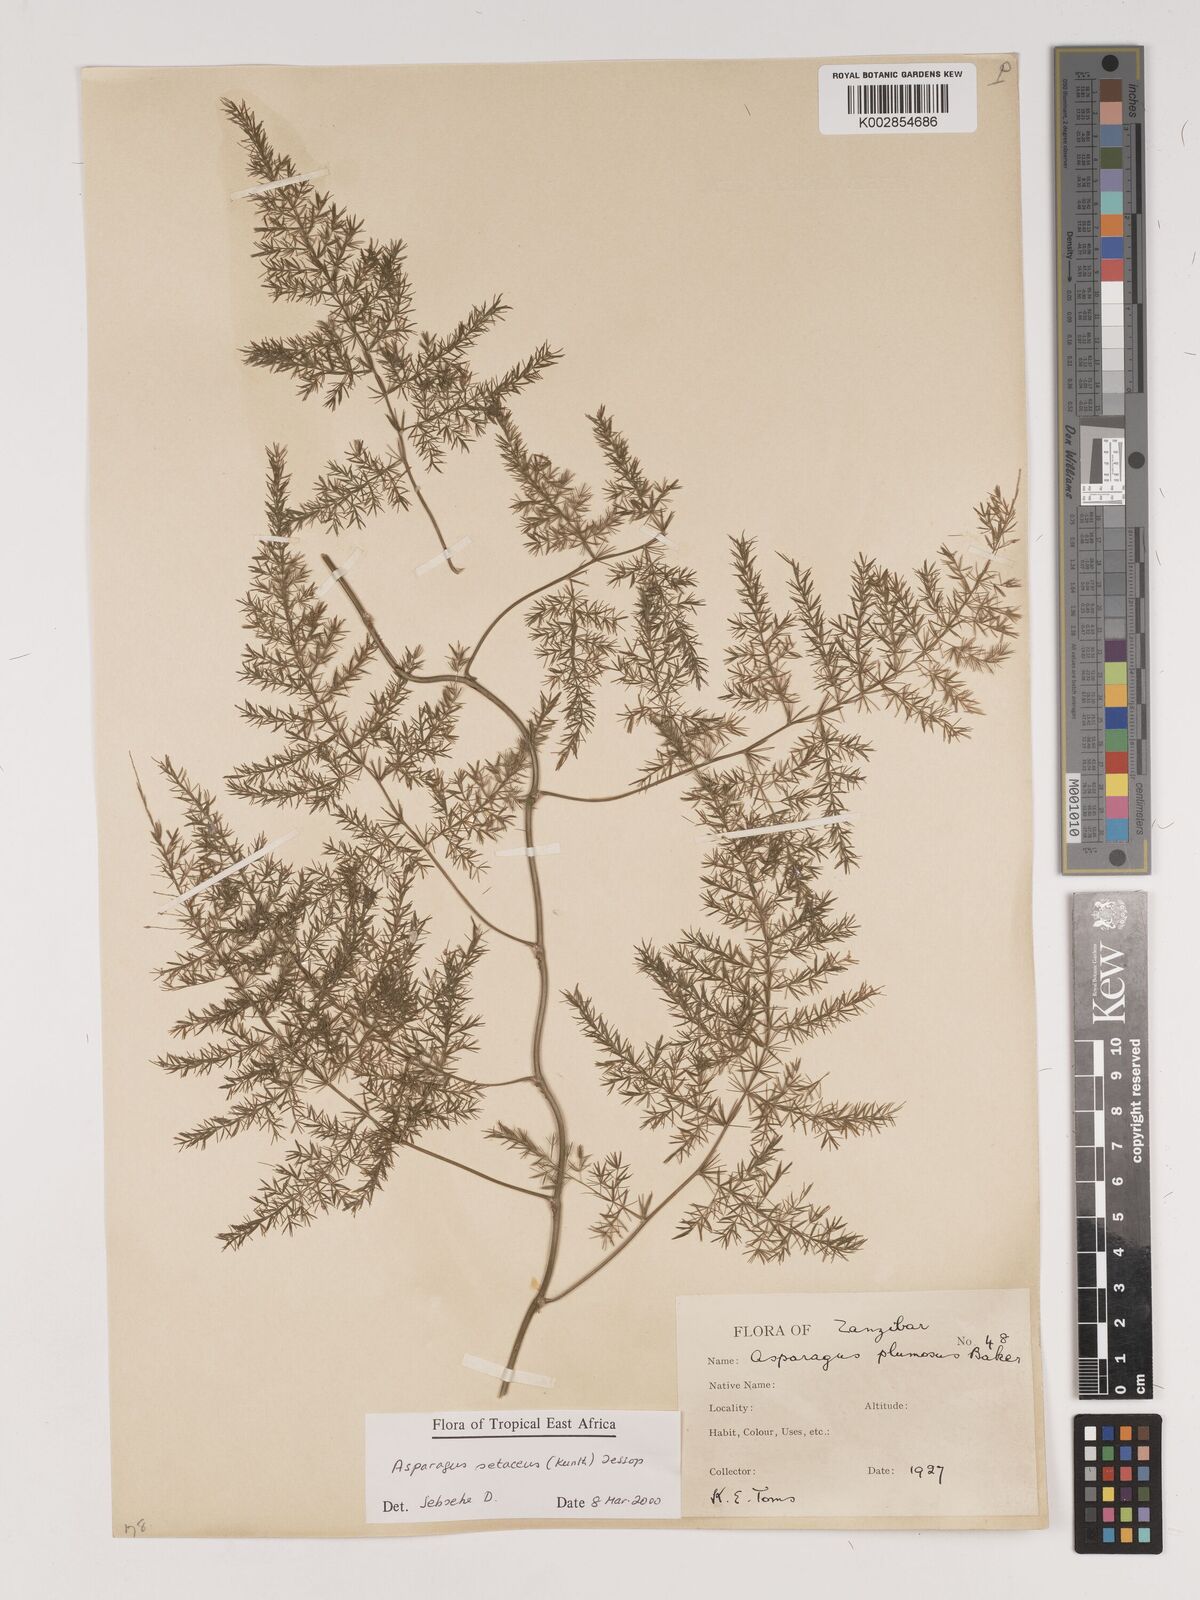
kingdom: Plantae
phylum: Tracheophyta
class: Liliopsida
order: Asparagales
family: Asparagaceae
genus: Asparagus
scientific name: Asparagus setaceus
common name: Common asparagus fern
